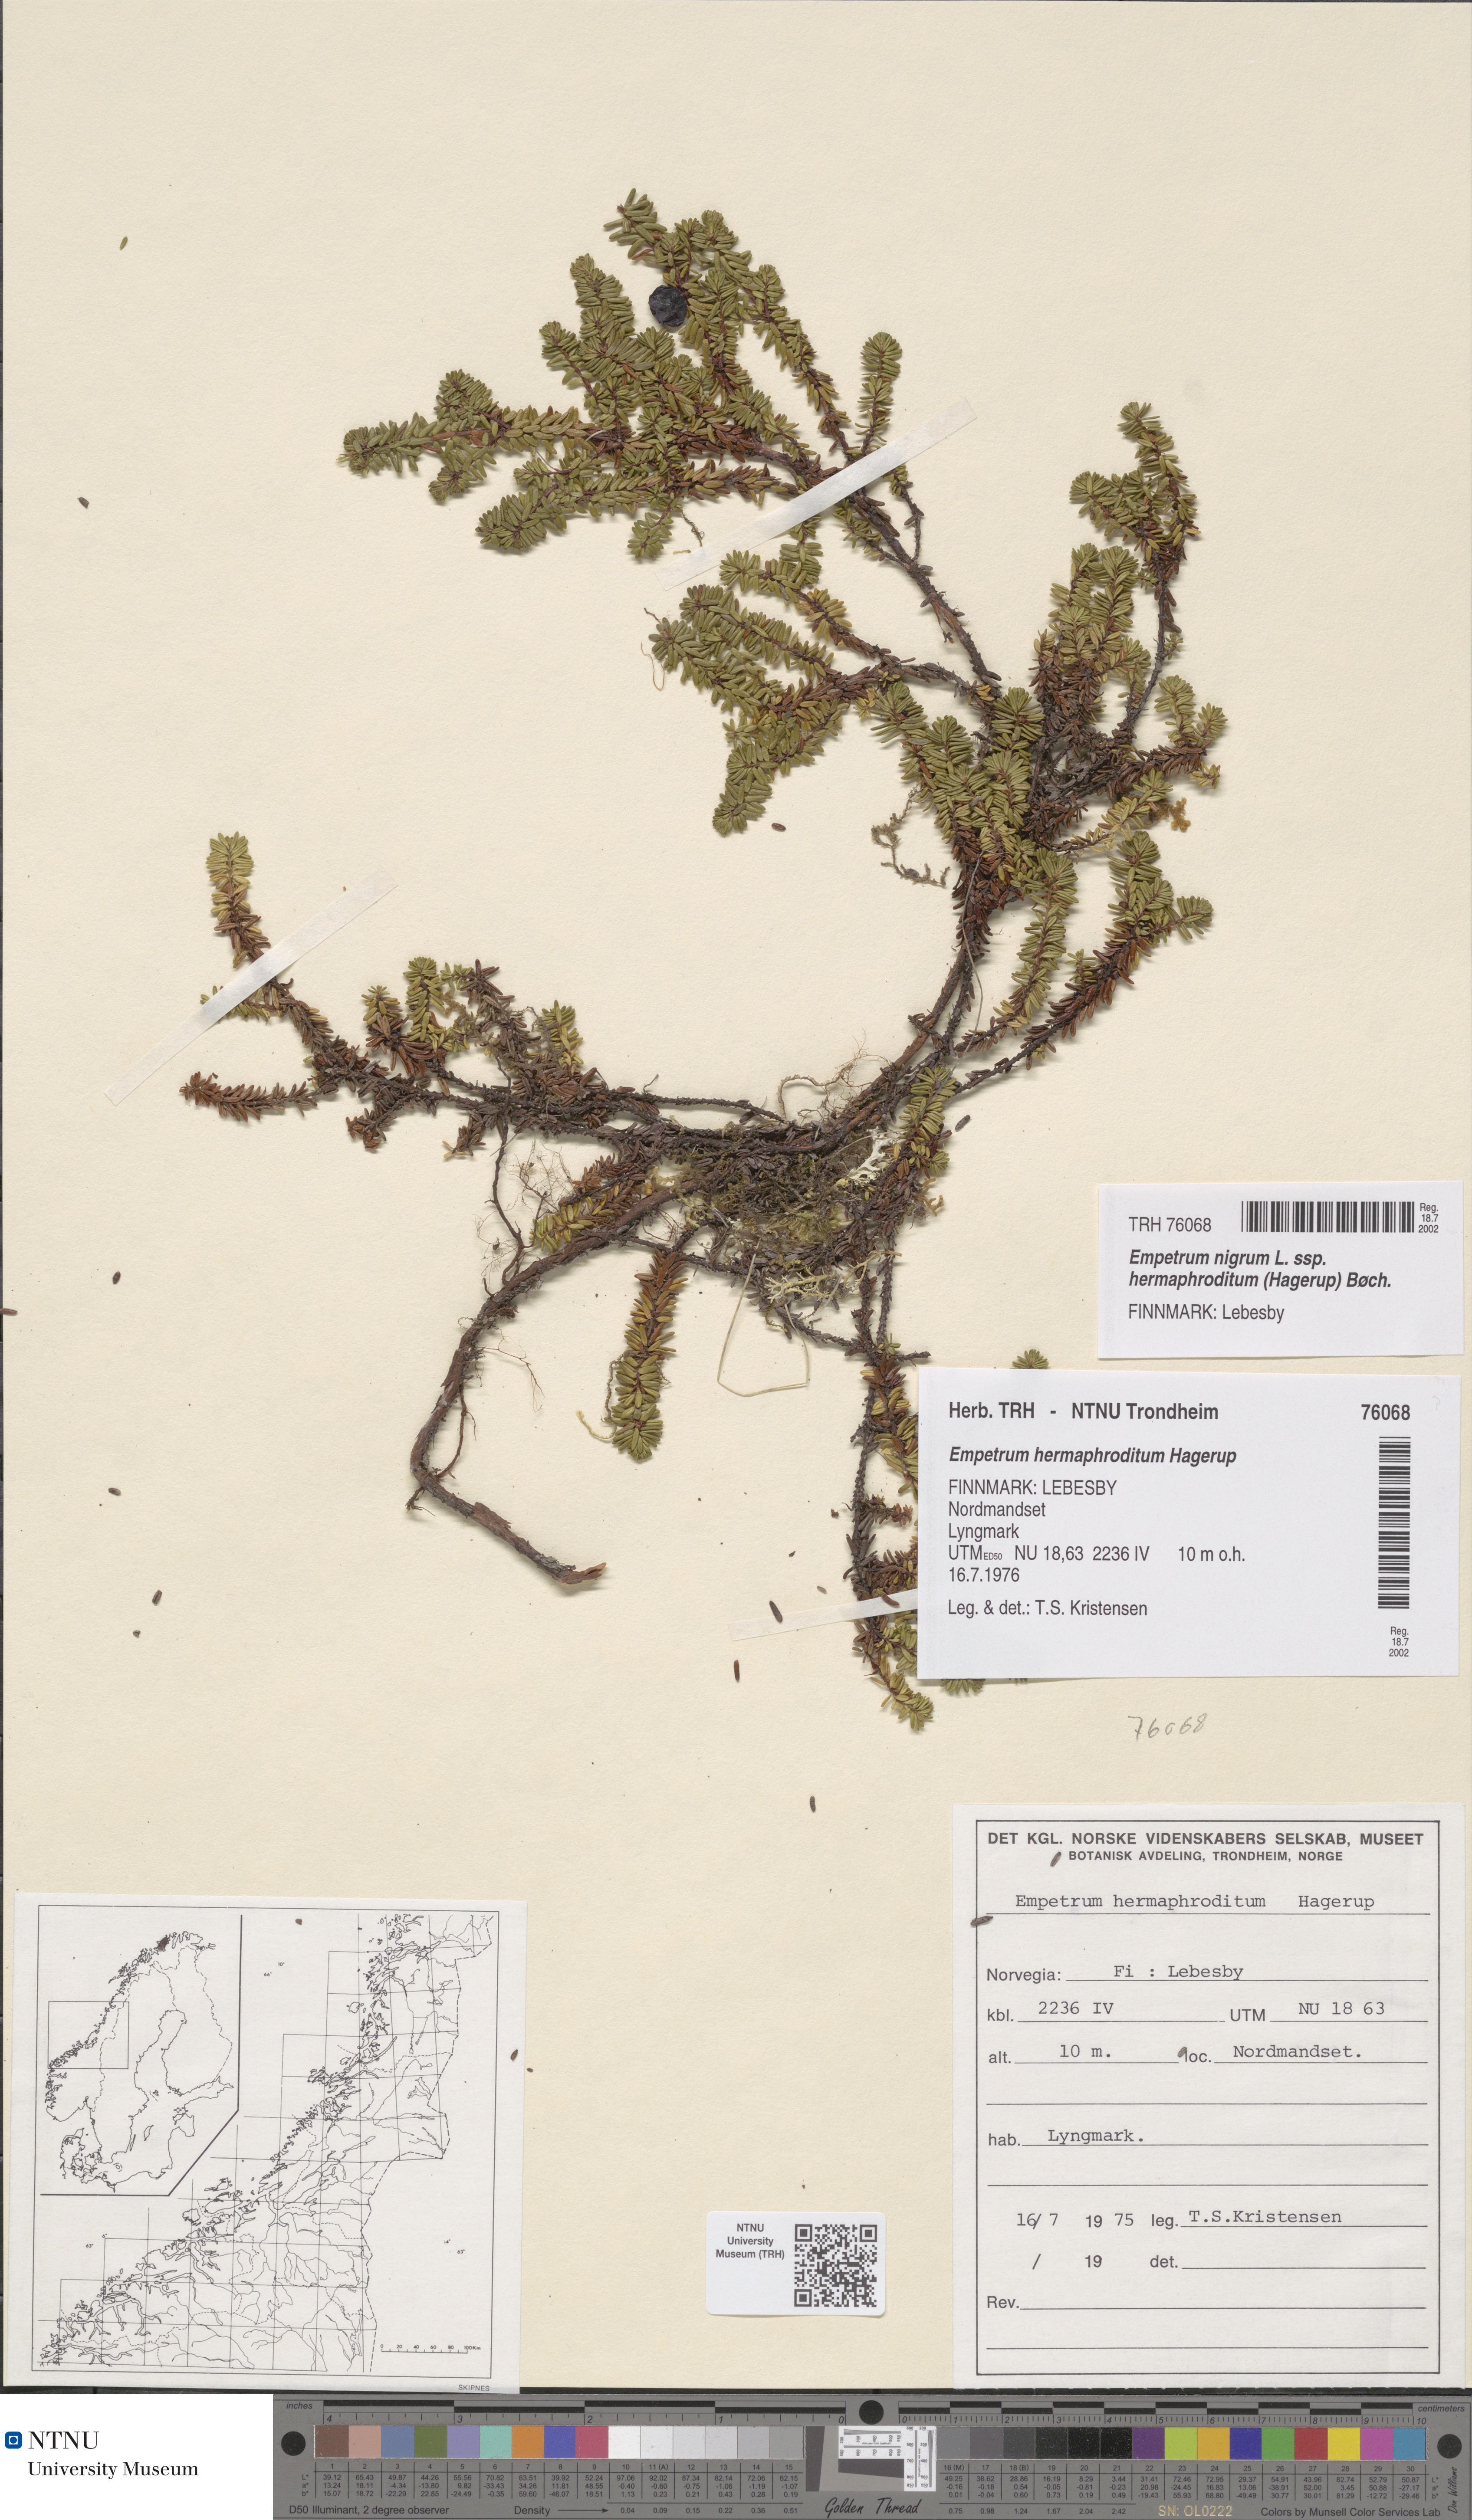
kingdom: Plantae
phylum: Tracheophyta
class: Magnoliopsida
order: Ericales
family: Ericaceae
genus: Empetrum
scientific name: Empetrum hermaphroditum
